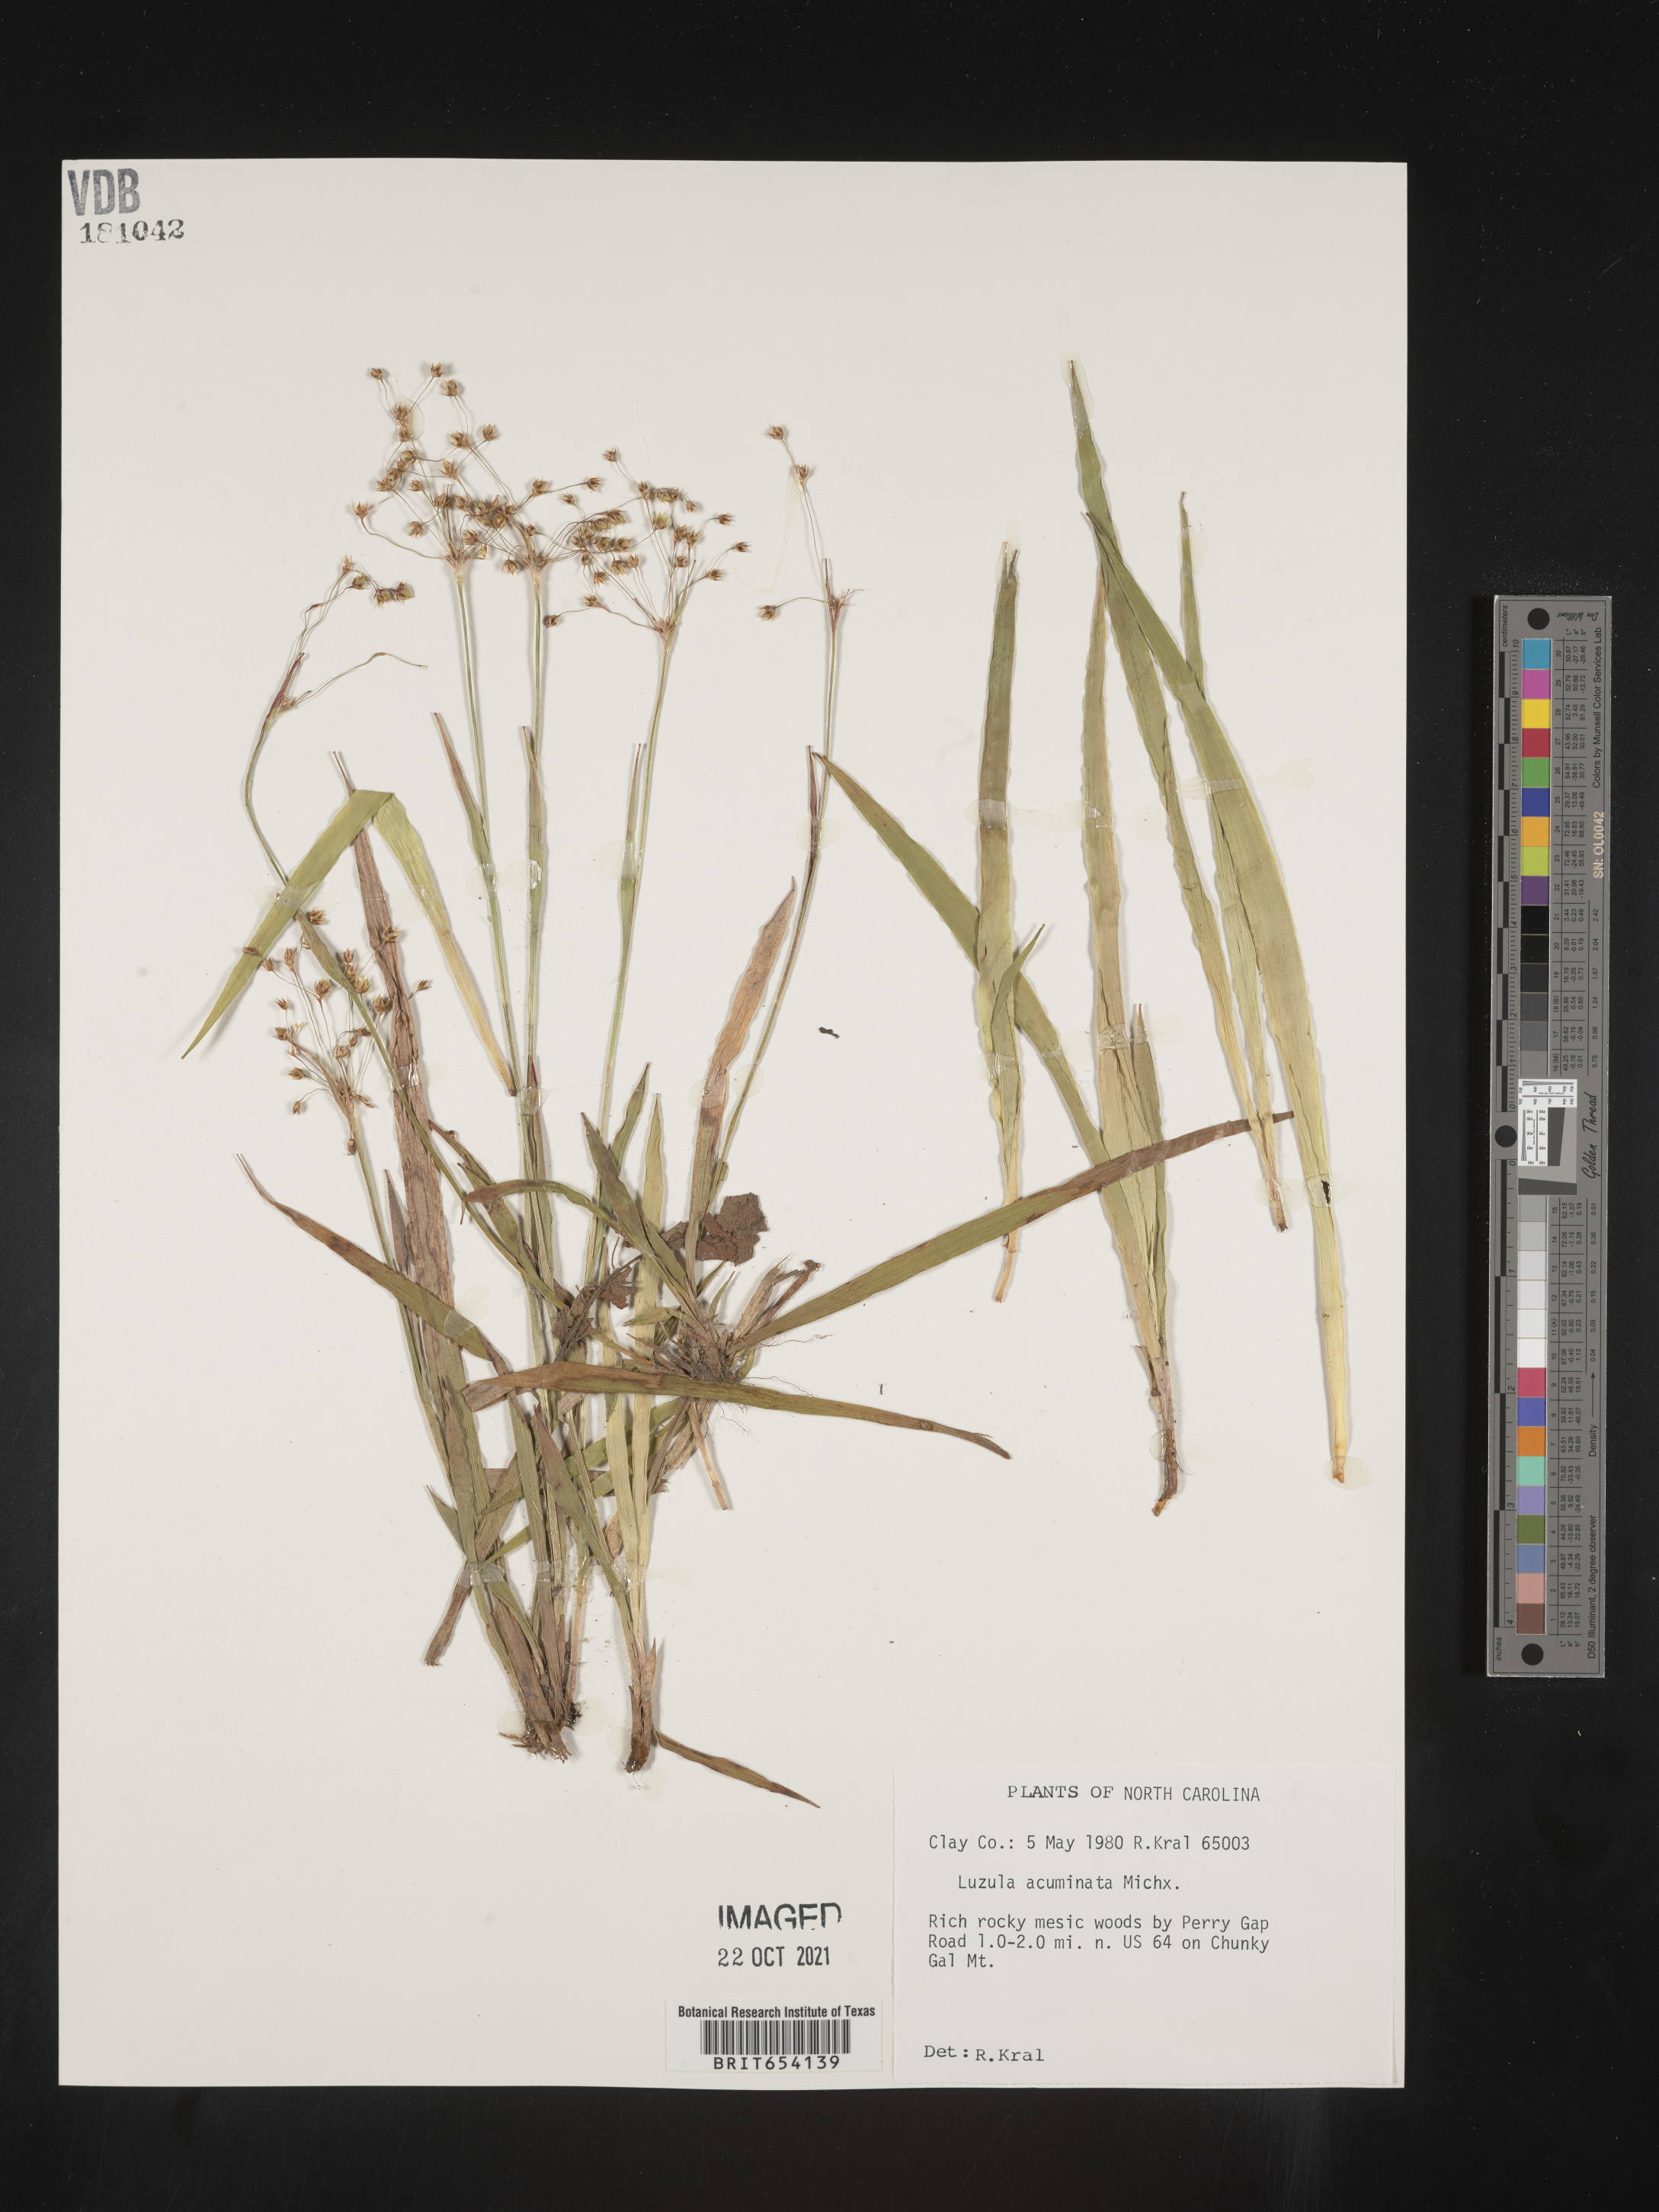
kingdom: Plantae
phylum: Tracheophyta
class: Liliopsida
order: Poales
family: Juncaceae
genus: Luzula
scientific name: Luzula acuminata
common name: Hairy woodrush
